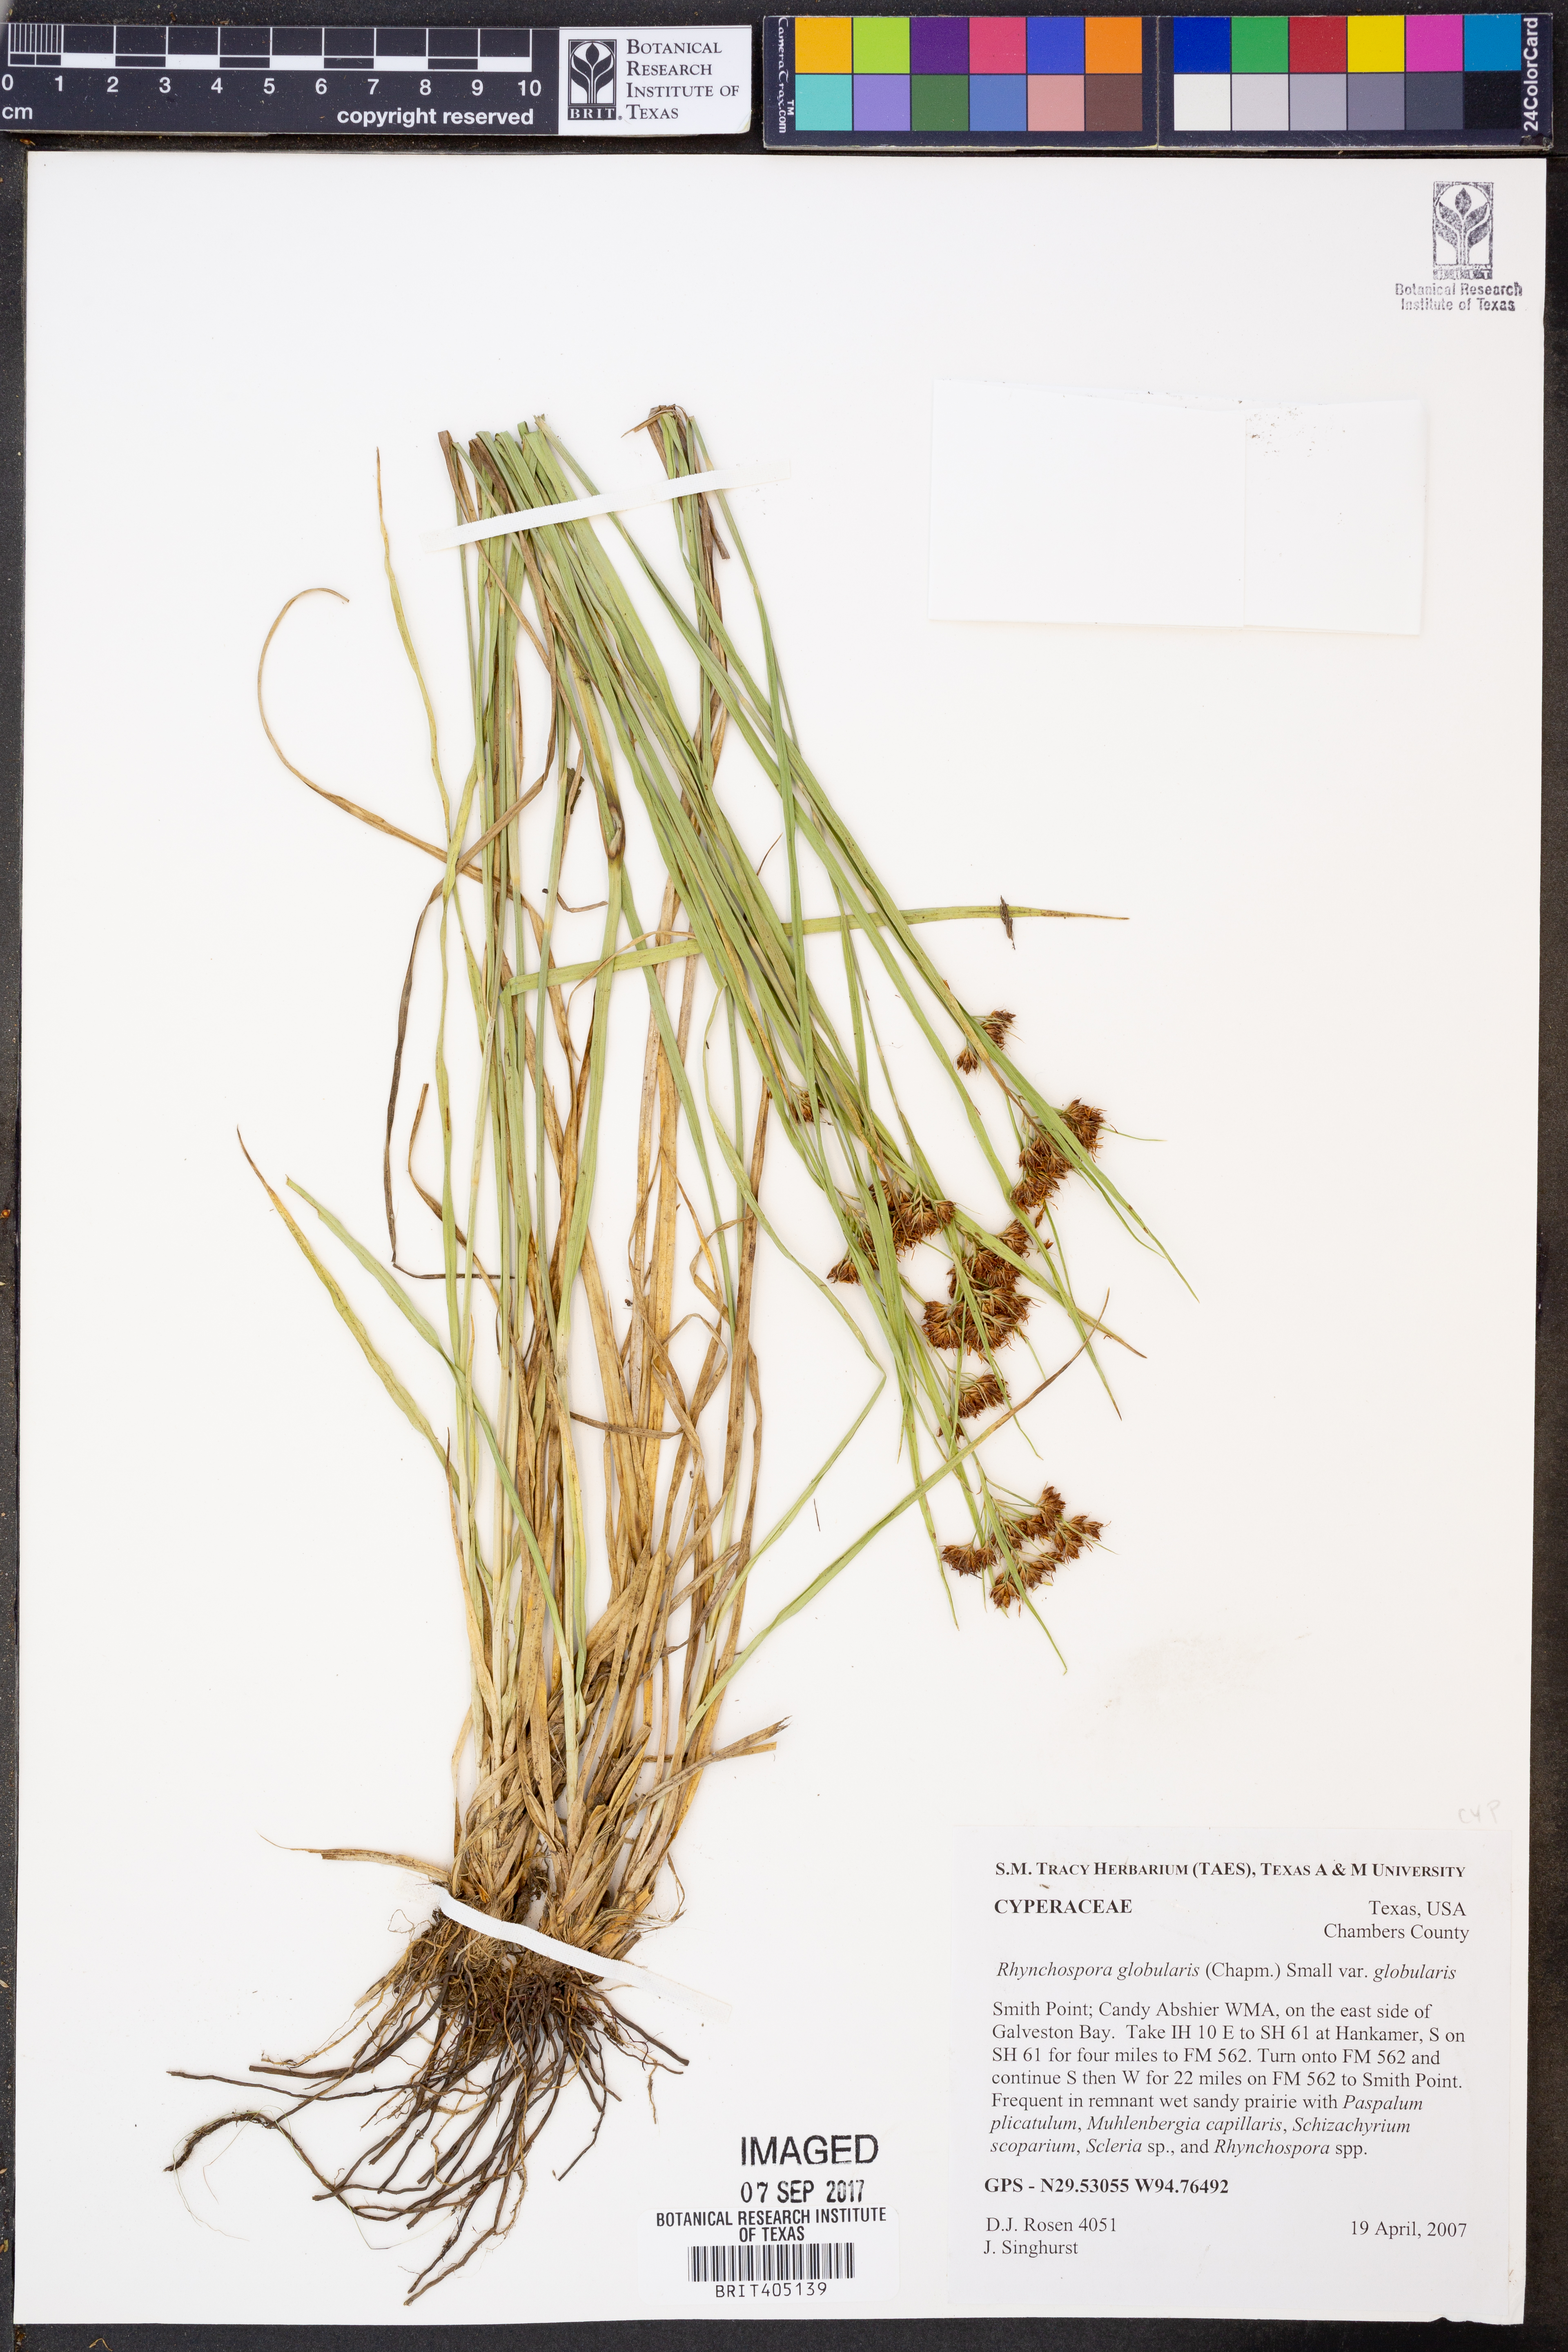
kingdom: Plantae
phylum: Tracheophyta
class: Liliopsida
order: Poales
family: Cyperaceae
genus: Rhynchospora
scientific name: Rhynchospora globularis
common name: Globe beaksedge
